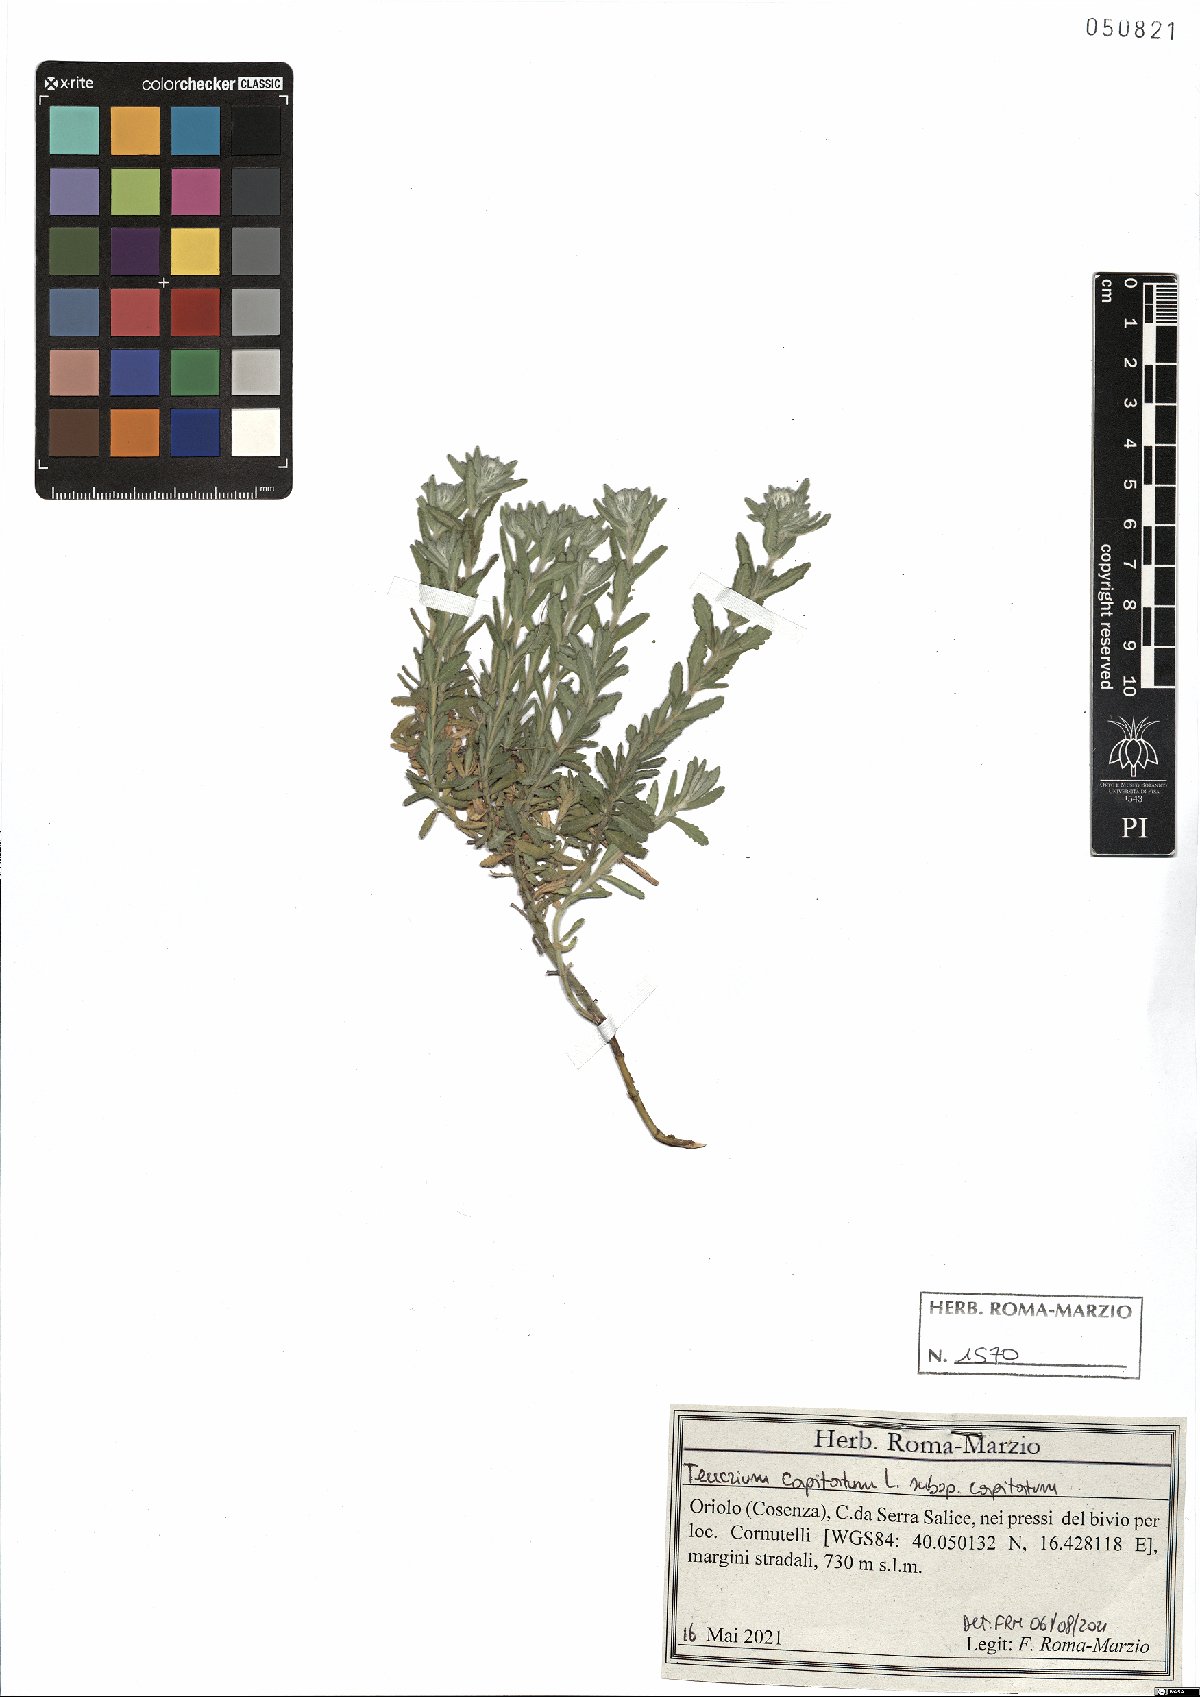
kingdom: Plantae
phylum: Tracheophyta
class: Magnoliopsida
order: Lamiales
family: Lamiaceae
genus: Teucrium
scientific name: Teucrium capitatum
